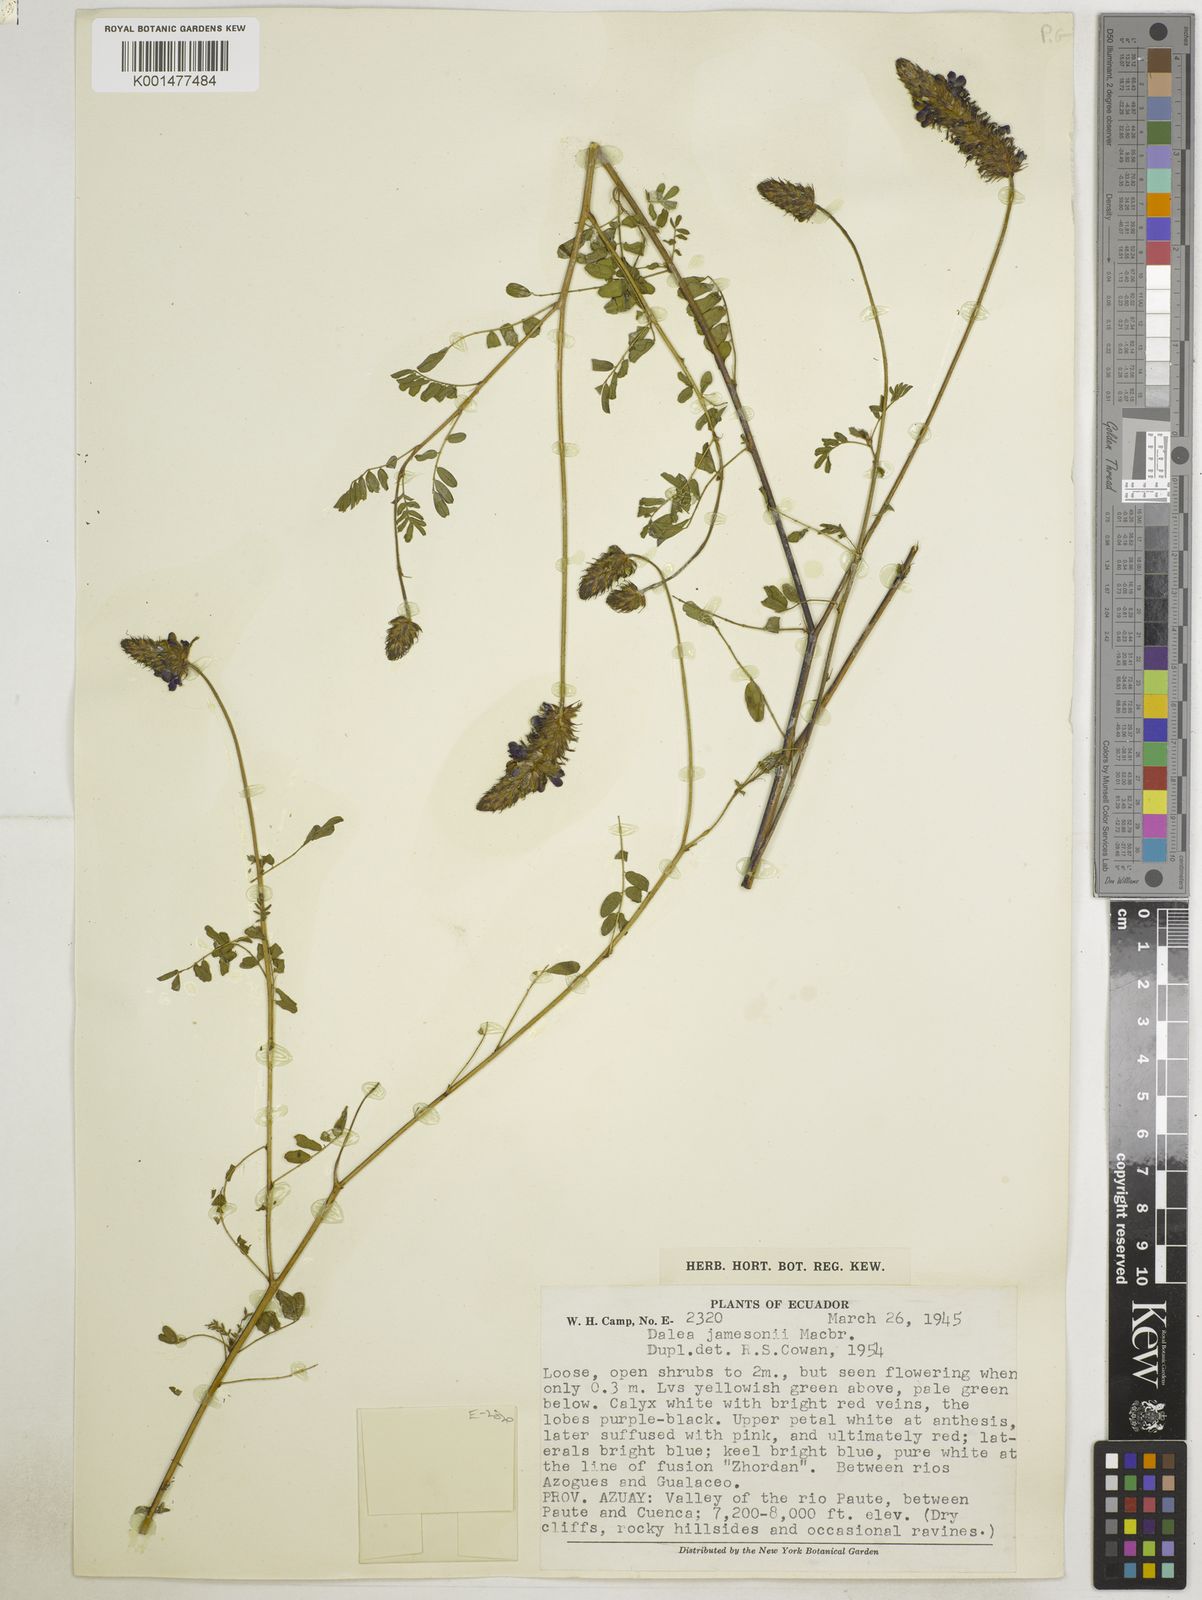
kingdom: Plantae
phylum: Tracheophyta
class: Magnoliopsida
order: Fabales
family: Fabaceae
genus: Dalea
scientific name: Dalea jamesonii
